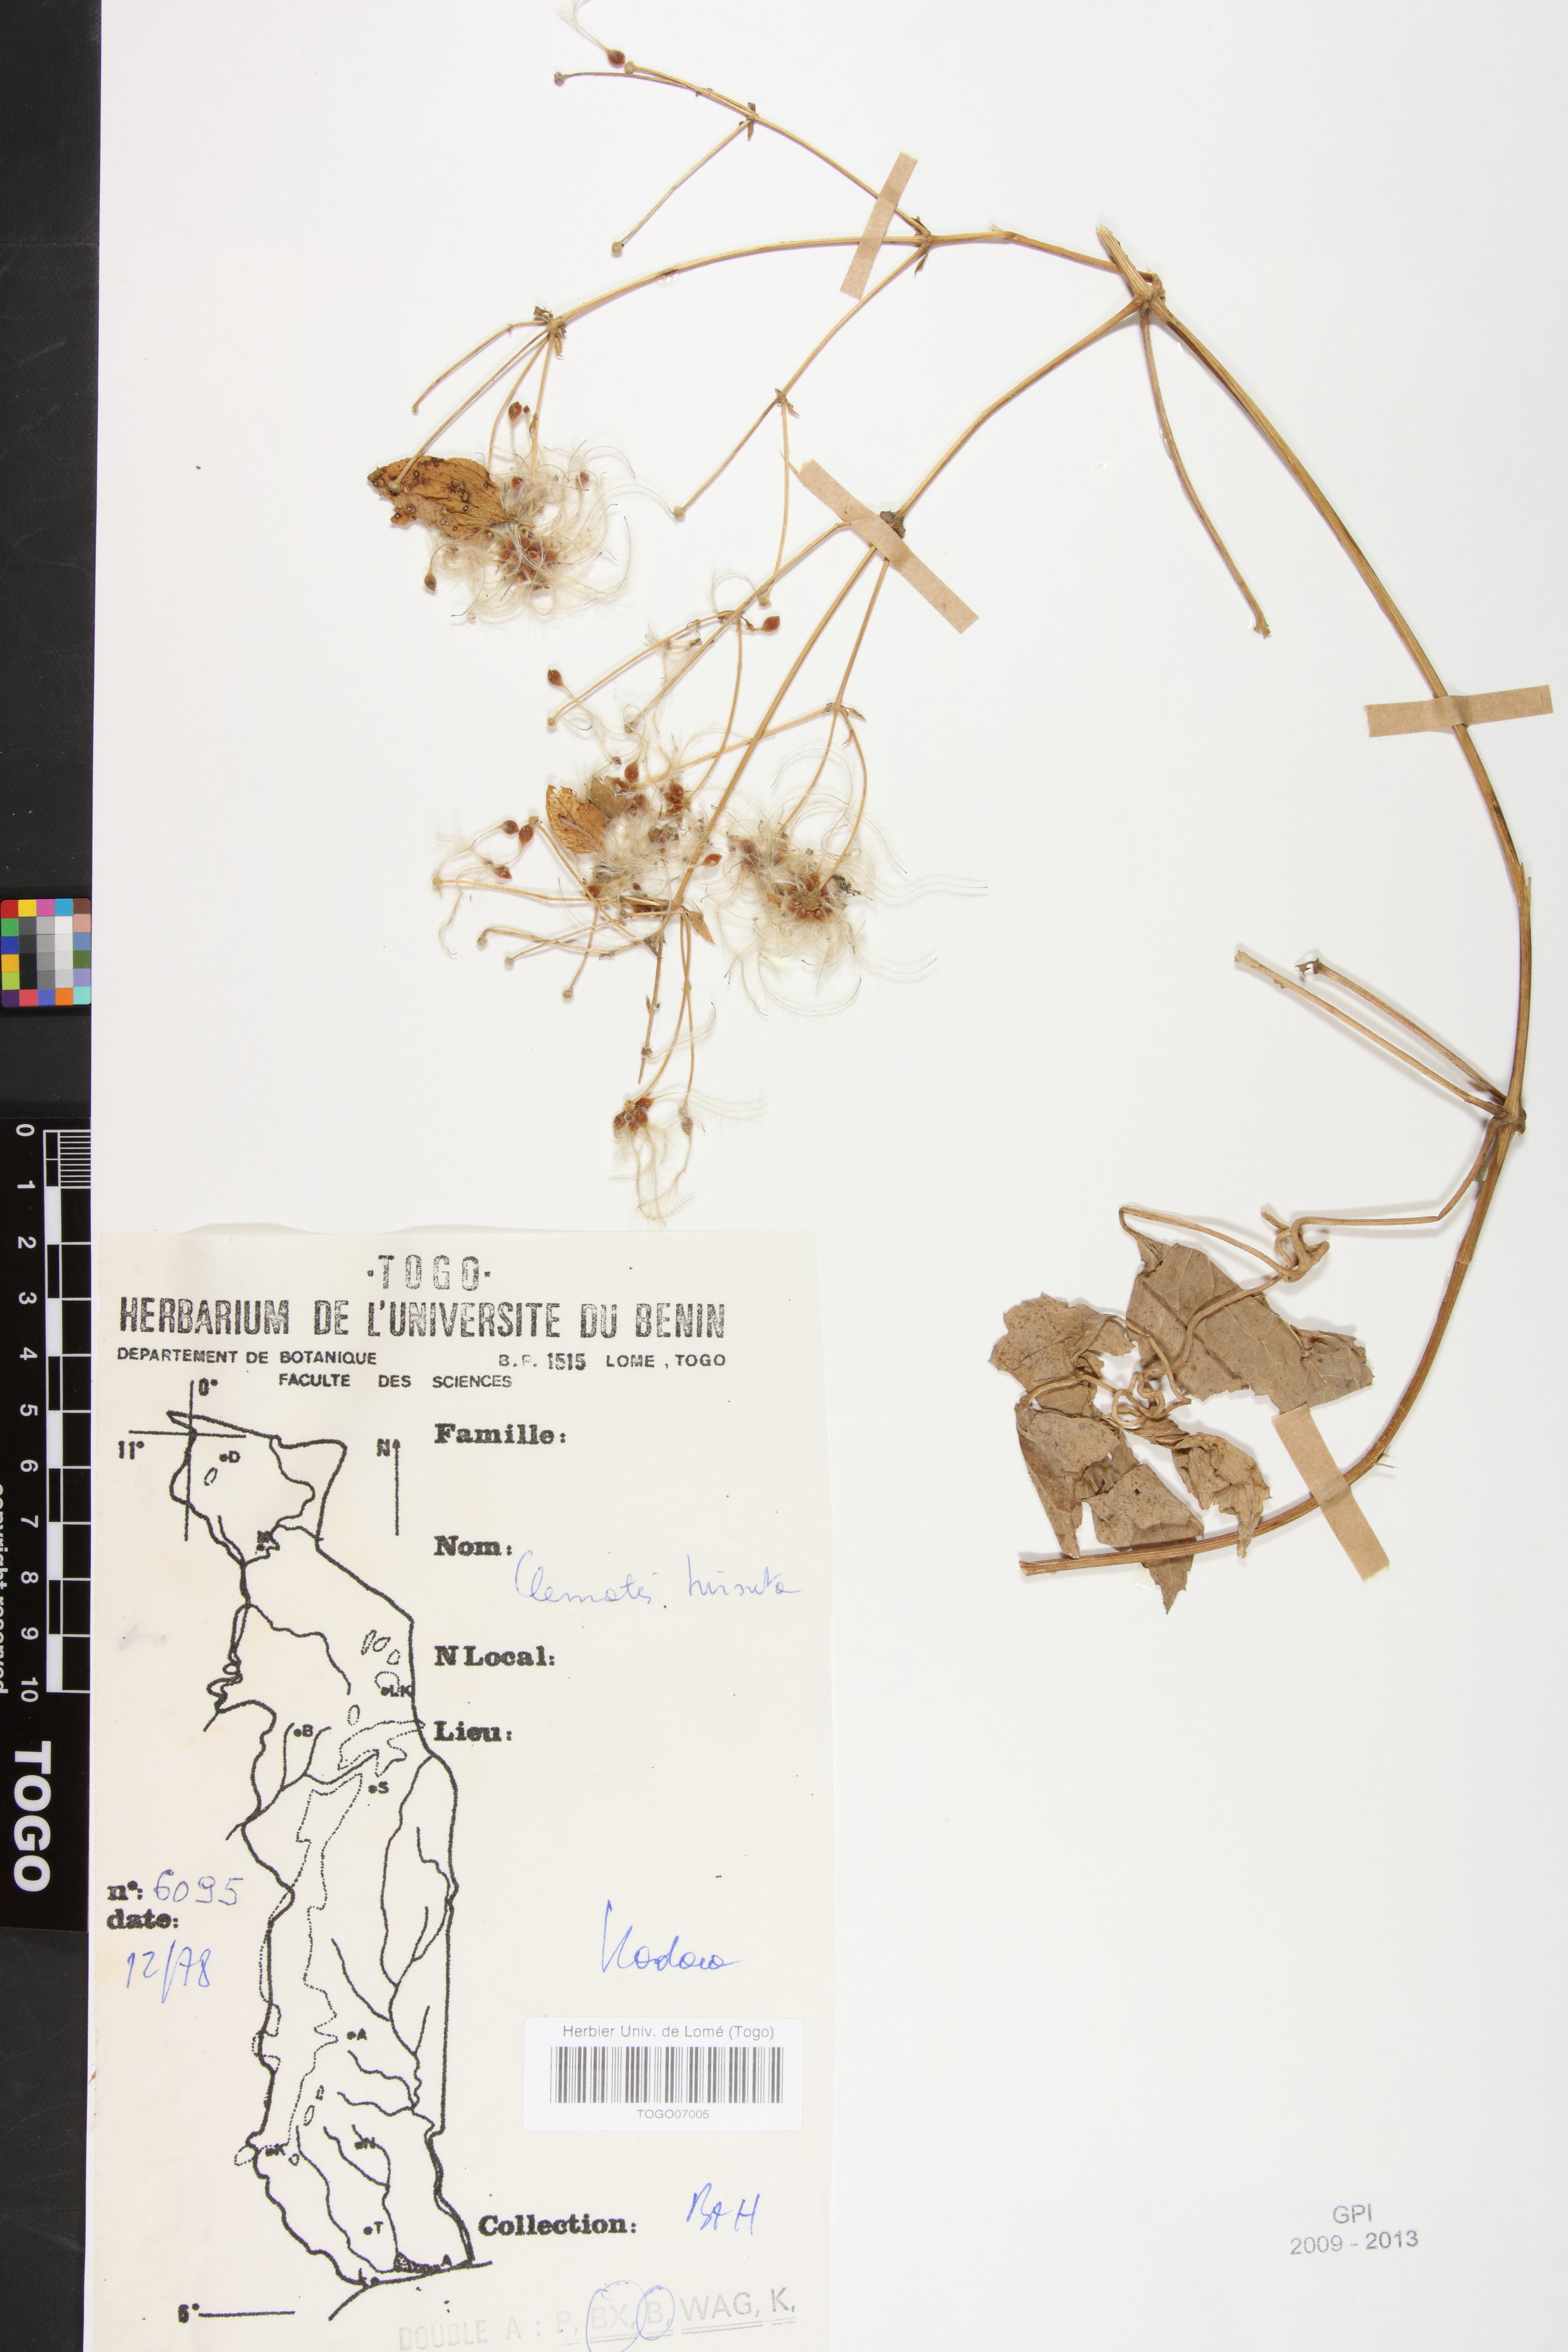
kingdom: Plantae
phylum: Tracheophyta
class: Magnoliopsida
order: Ranunculales
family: Ranunculaceae
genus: Clematis
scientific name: Clematis hirsuta
